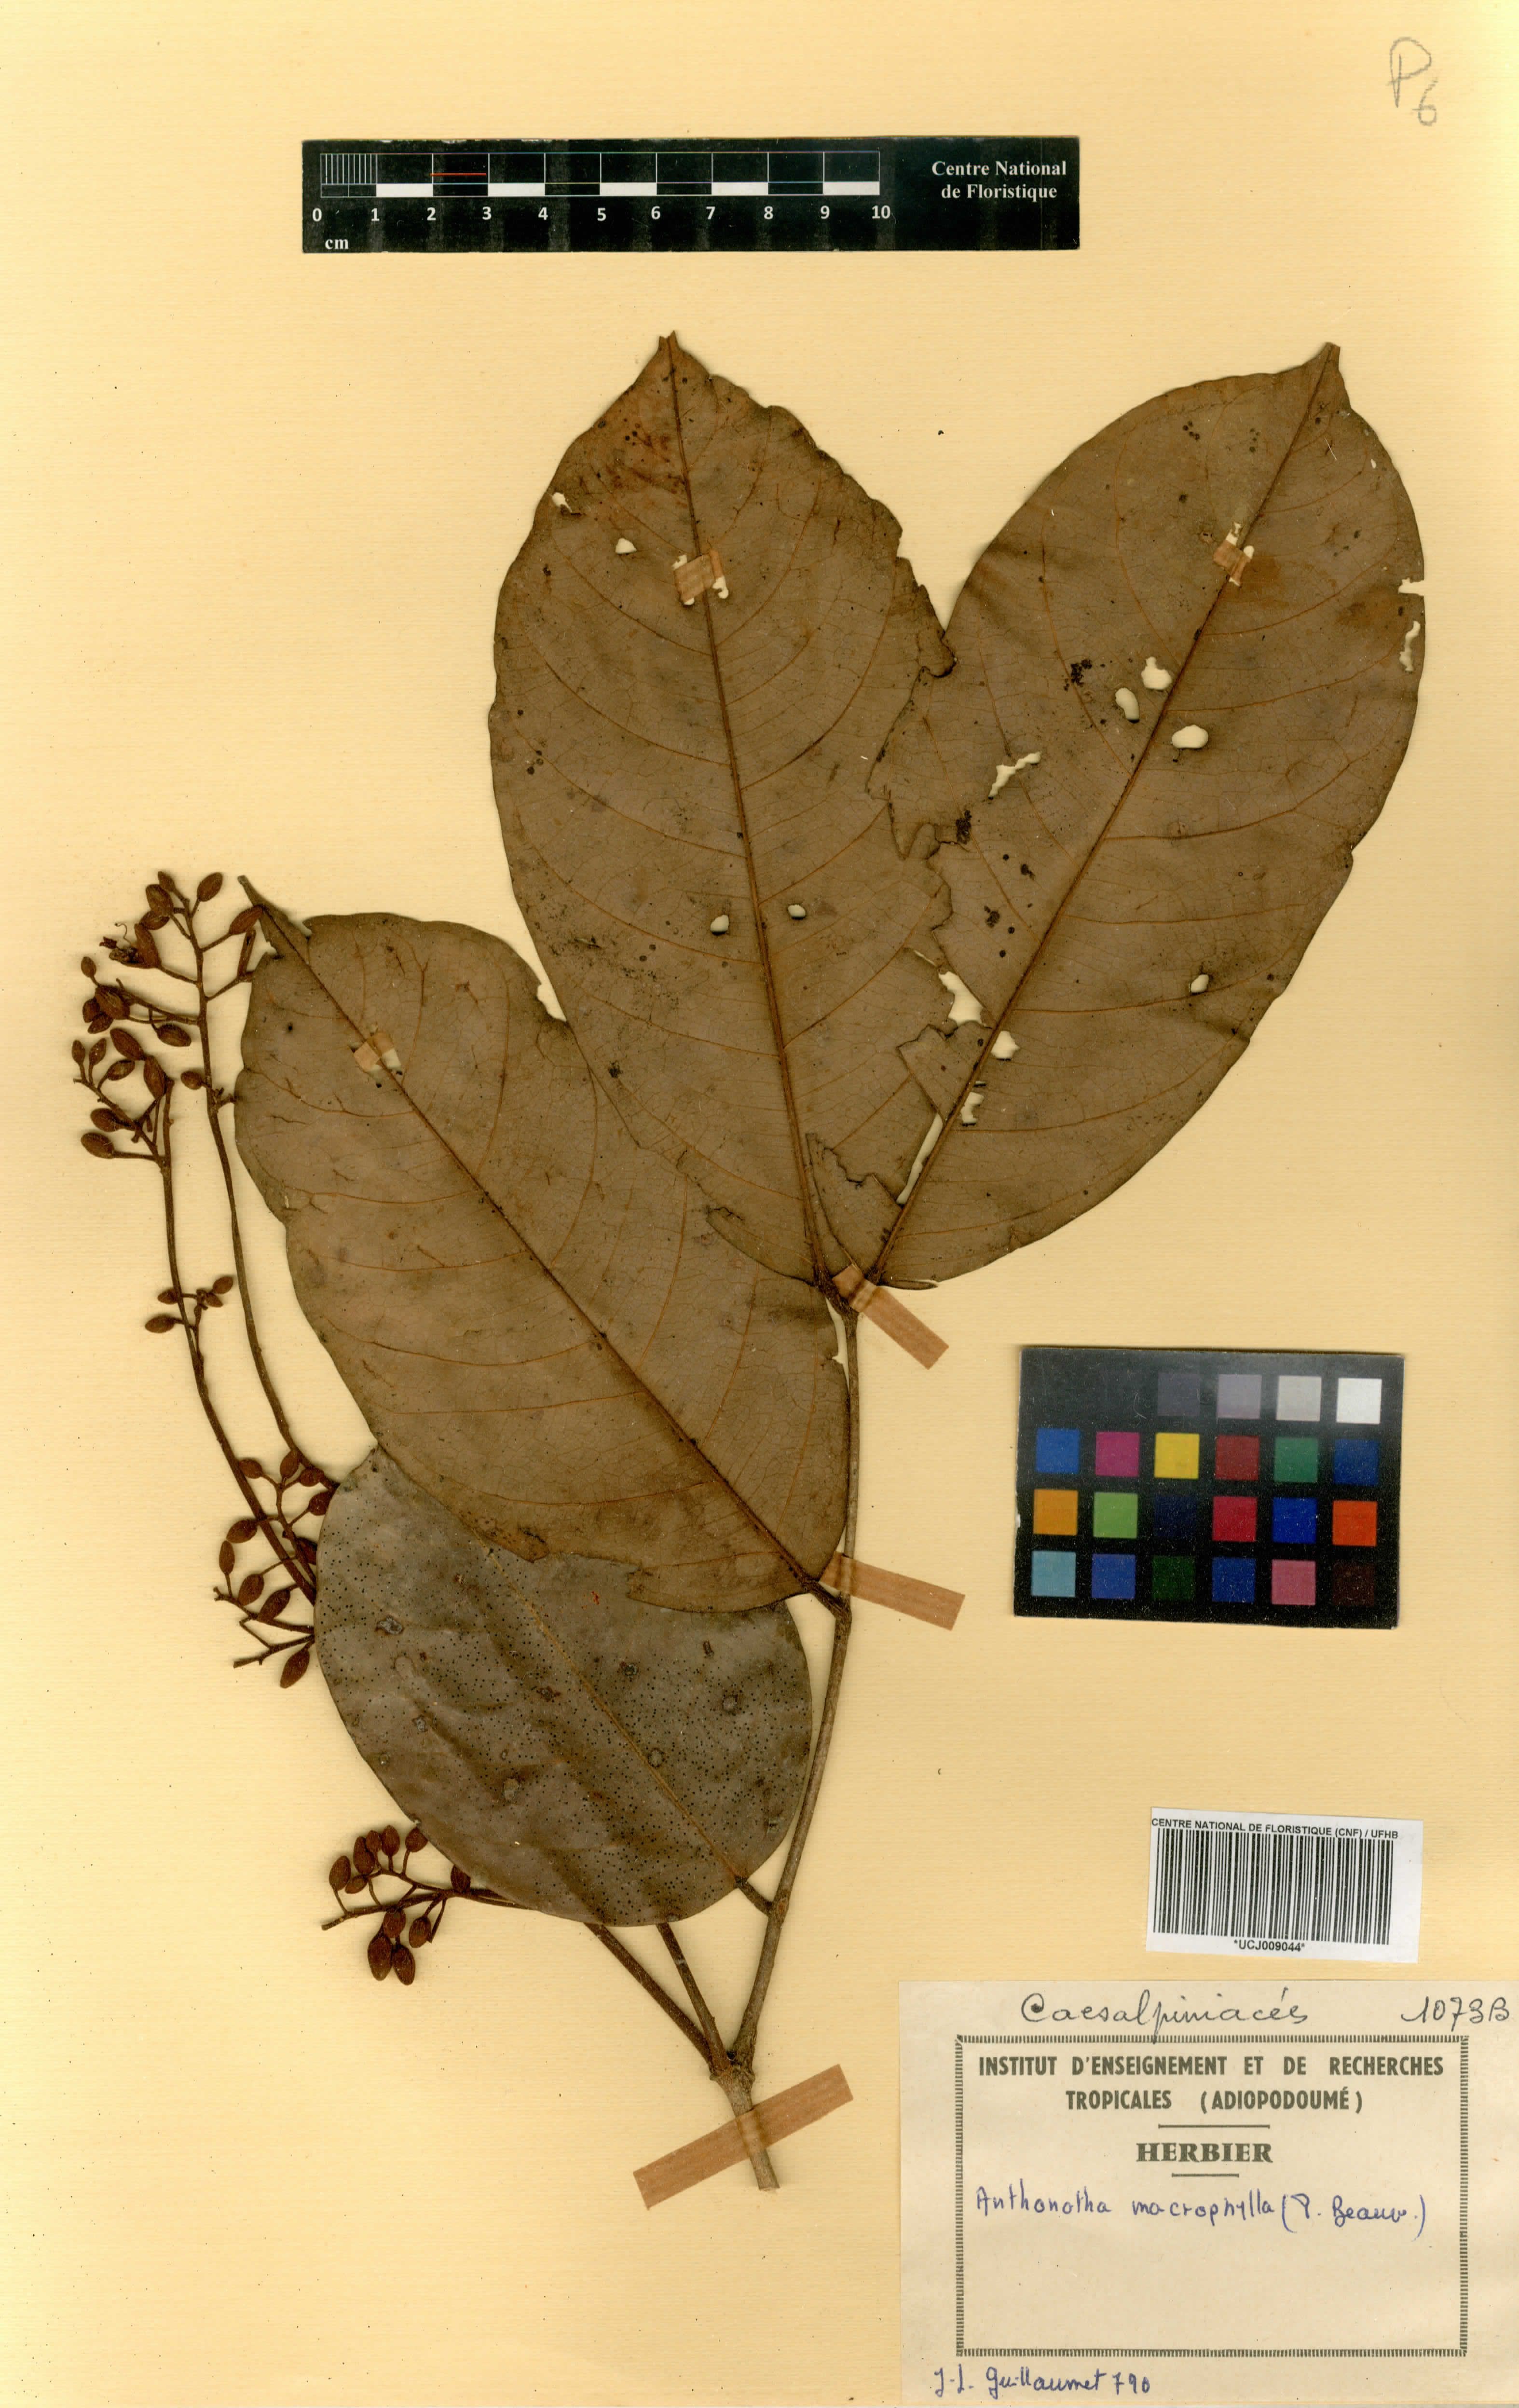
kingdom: Plantae
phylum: Tracheophyta
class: Magnoliopsida
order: Fabales
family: Fabaceae
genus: Anthonotha
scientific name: Anthonotha macrophylla
